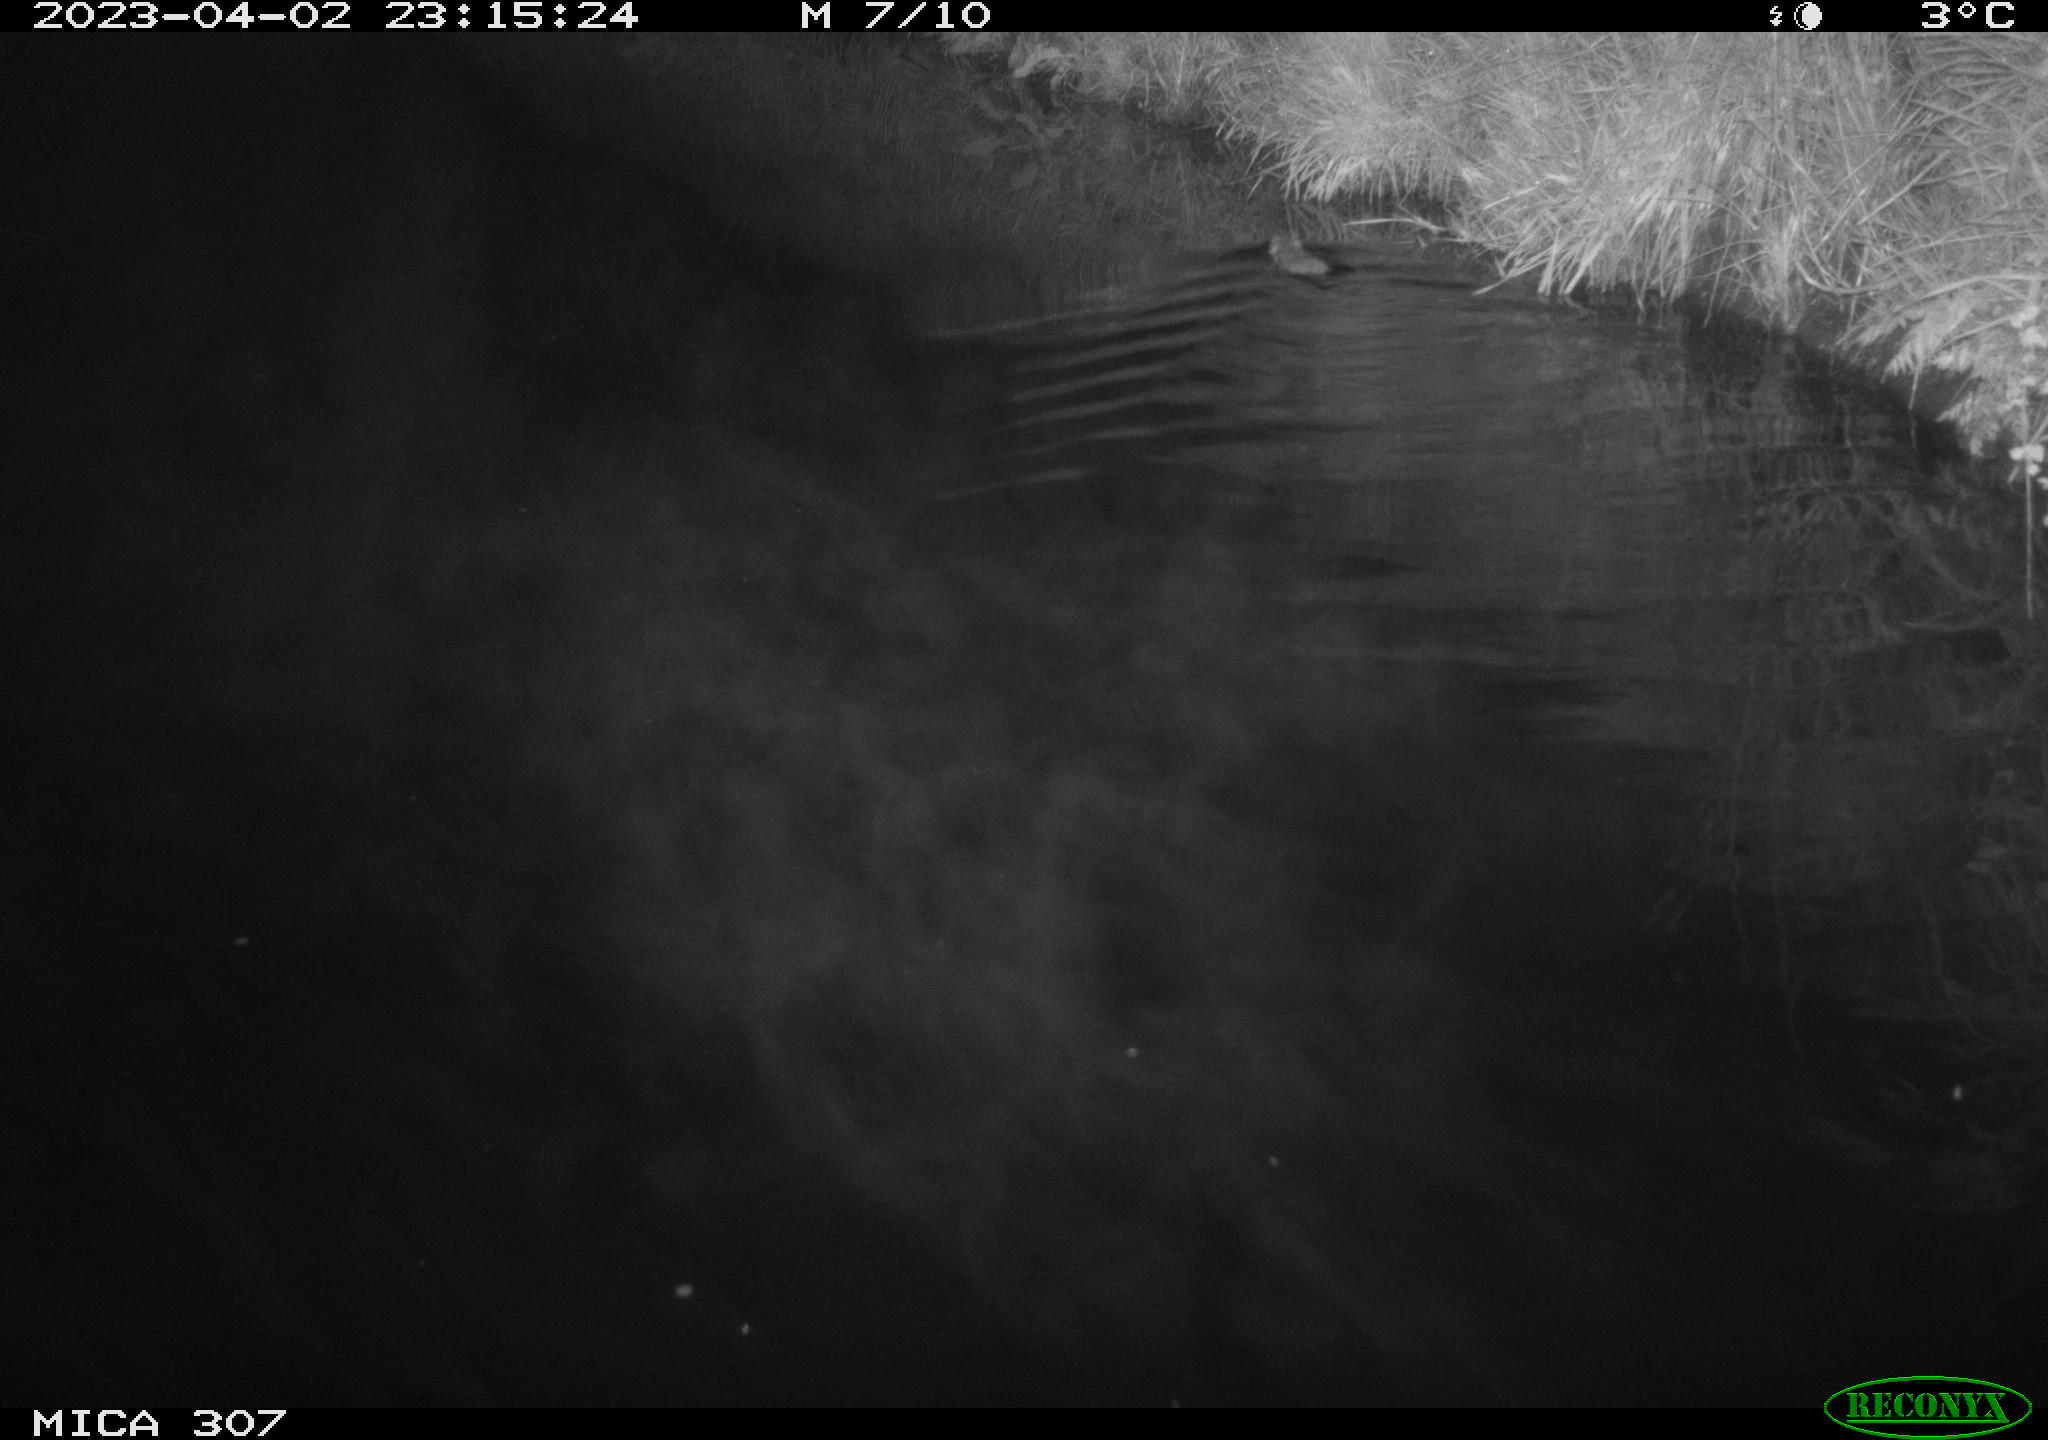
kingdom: Animalia
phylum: Chordata
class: Mammalia
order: Rodentia
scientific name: Rodentia
